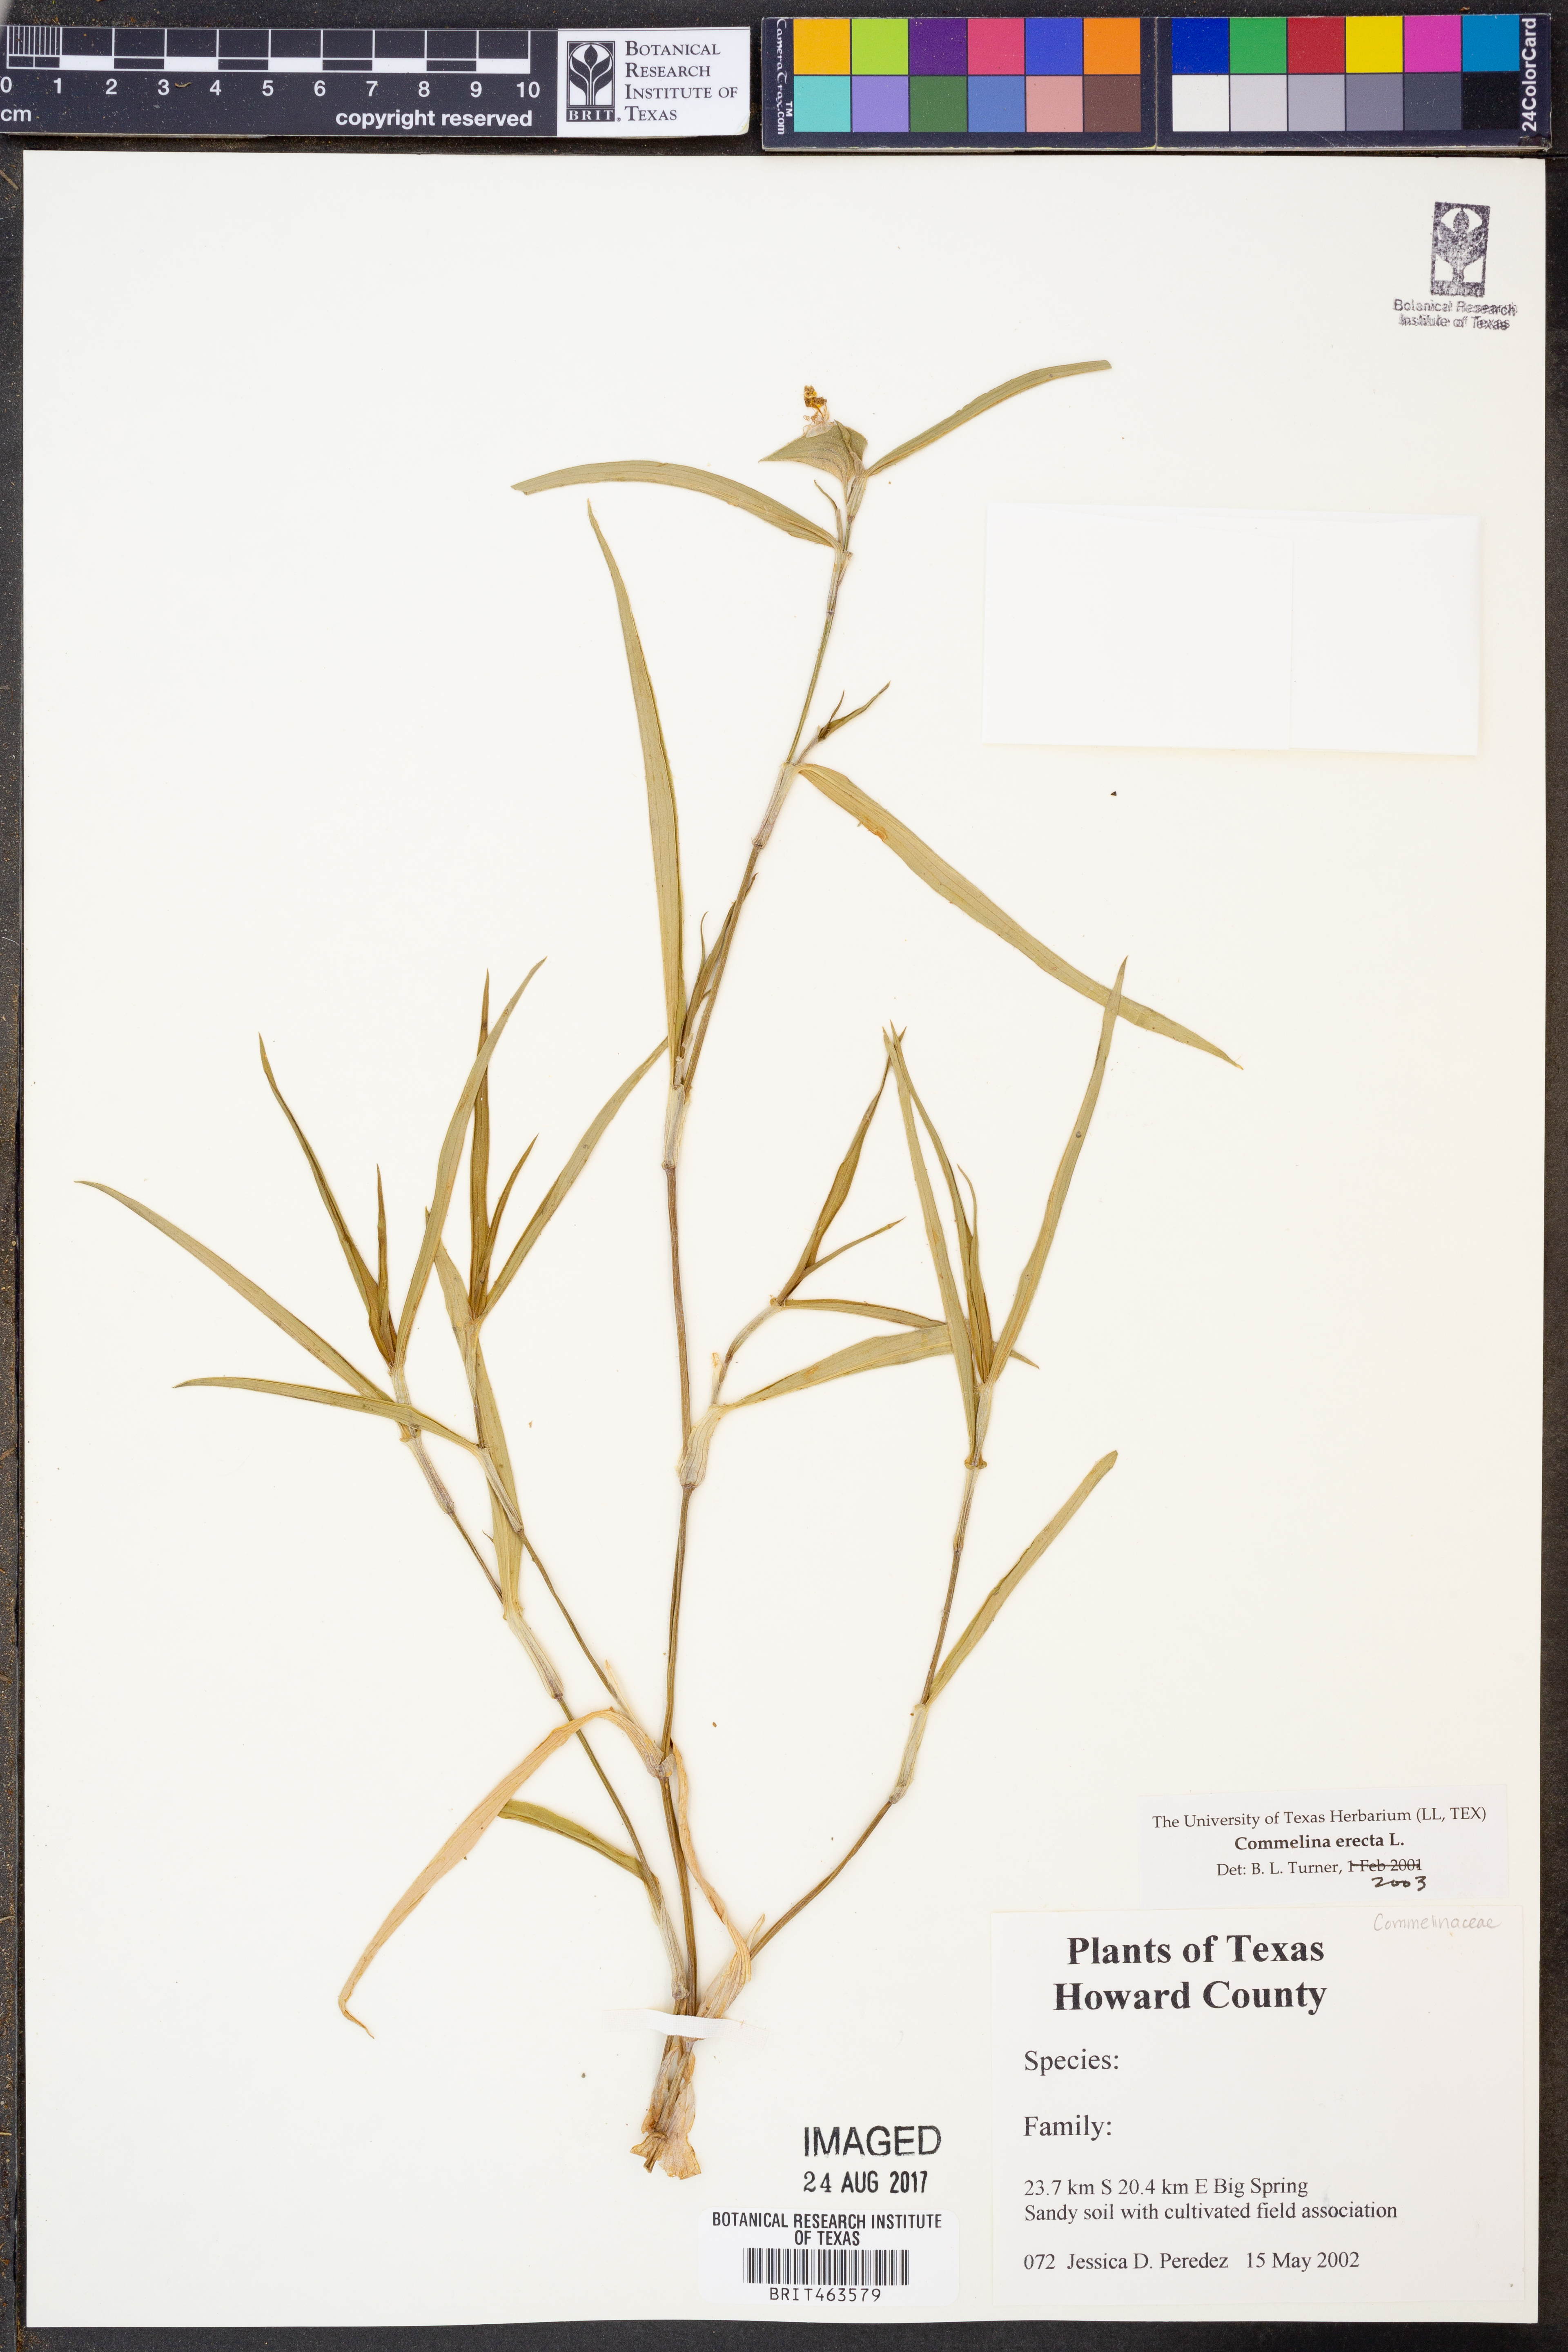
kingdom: Plantae
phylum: Tracheophyta
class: Liliopsida
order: Commelinales
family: Commelinaceae
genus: Commelina
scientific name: Commelina erecta
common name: Blousel blommetjie
